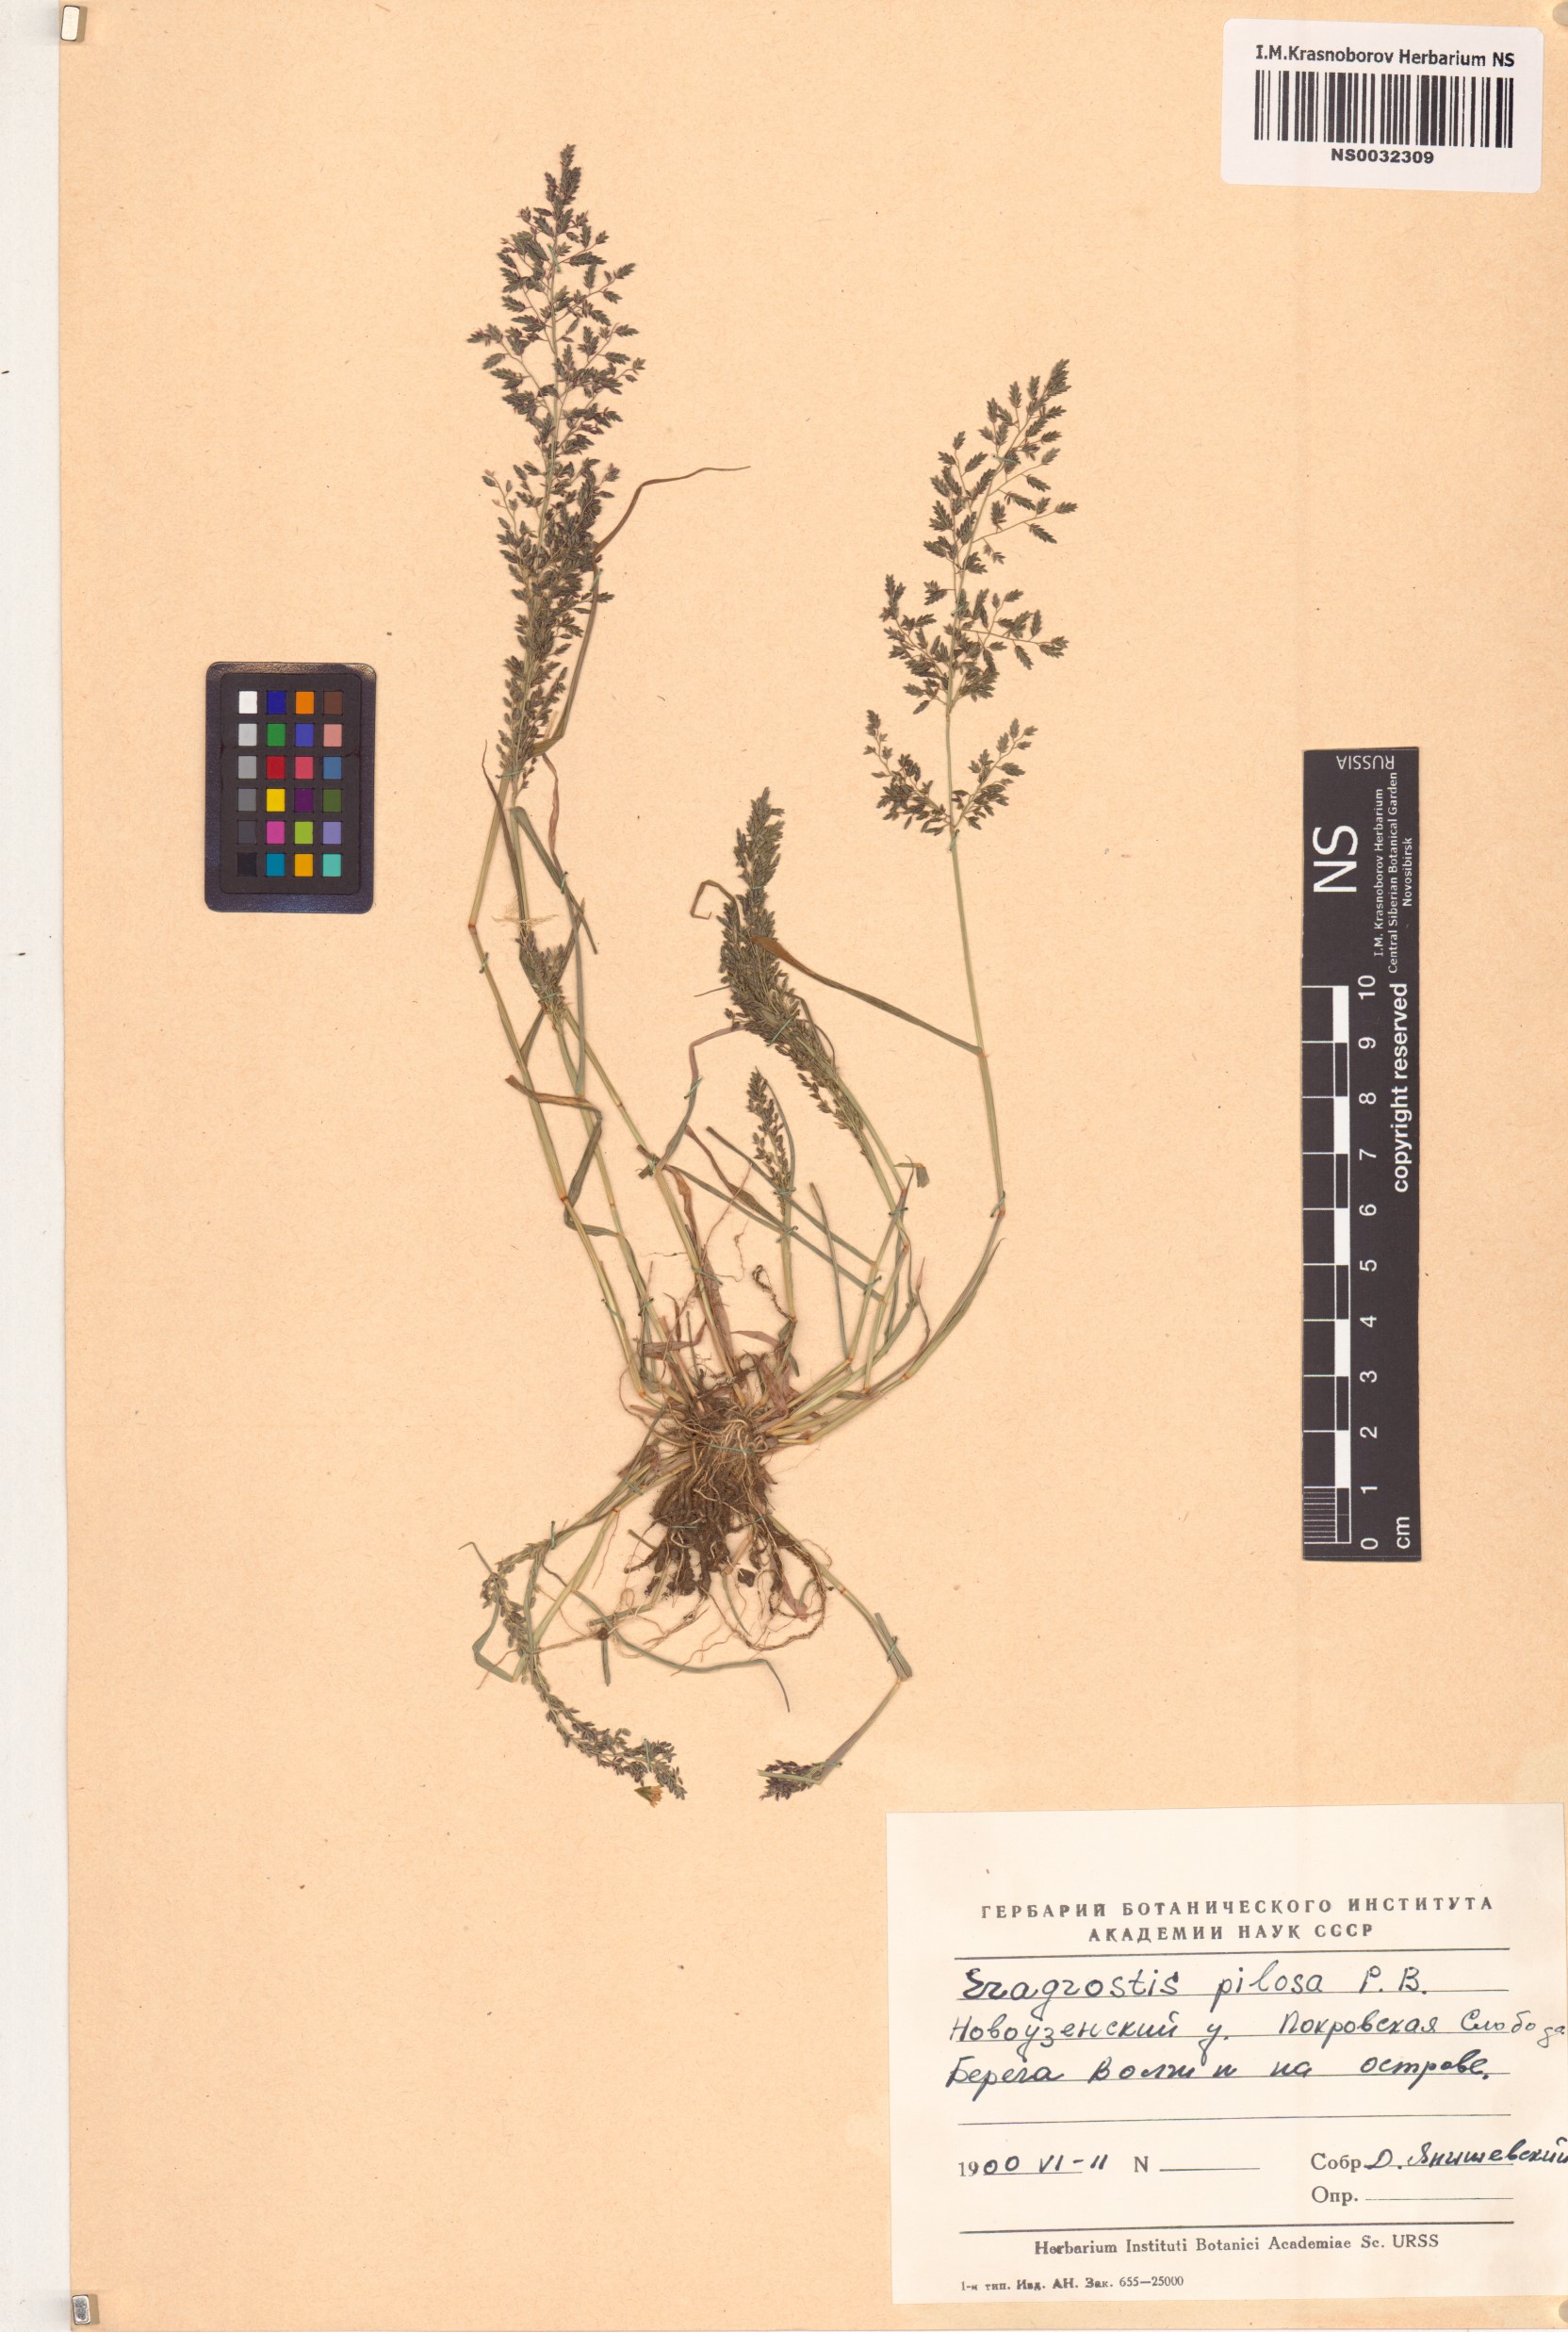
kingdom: Plantae
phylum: Tracheophyta
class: Liliopsida
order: Poales
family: Poaceae
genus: Eragrostis
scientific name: Eragrostis pilosa
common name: Indian lovegrass
